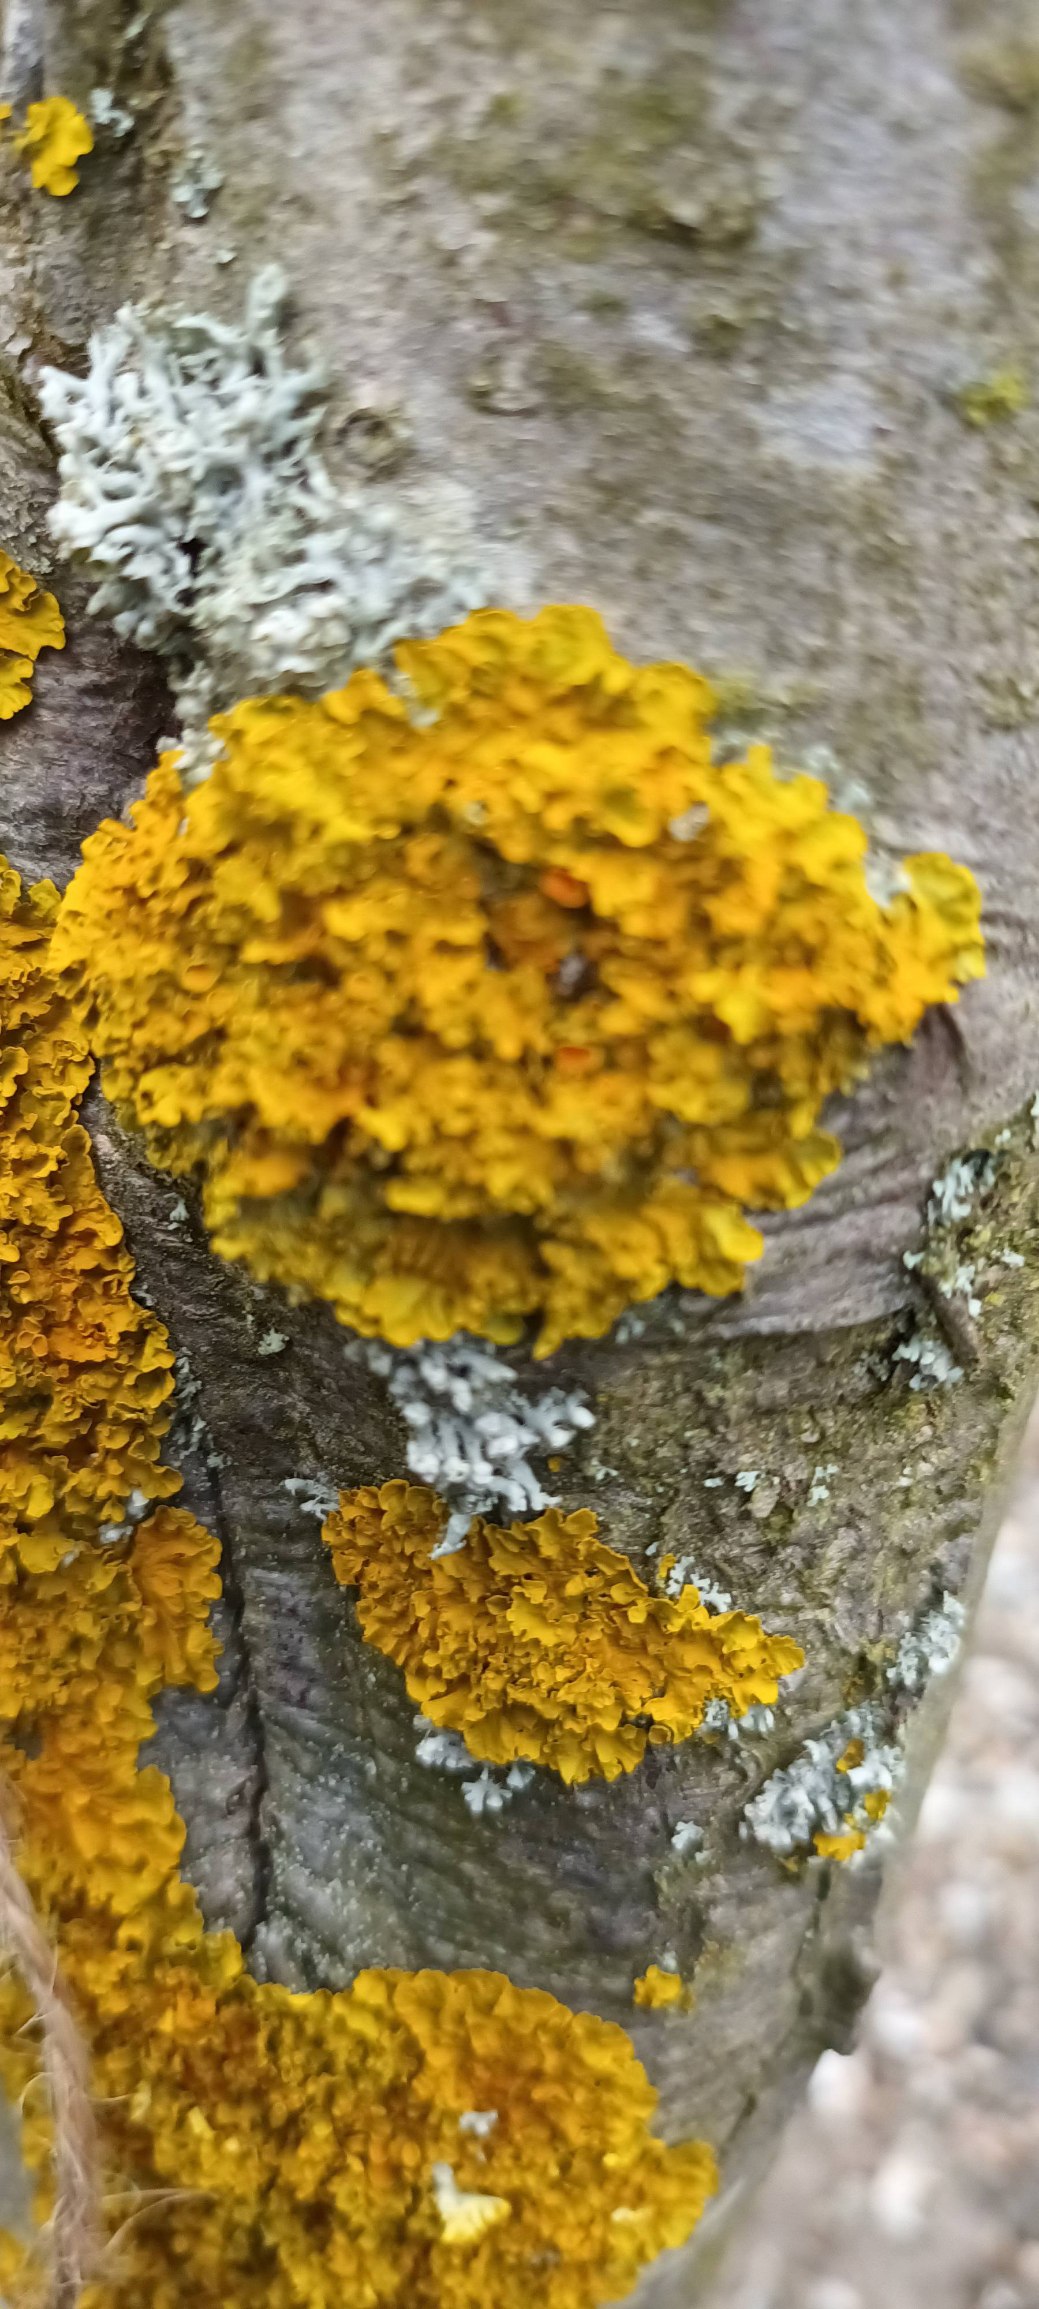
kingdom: Fungi
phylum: Ascomycota
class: Lecanoromycetes
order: Teloschistales
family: Teloschistaceae
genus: Xanthoria
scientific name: Xanthoria parietina
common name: Almindelig væggelav
